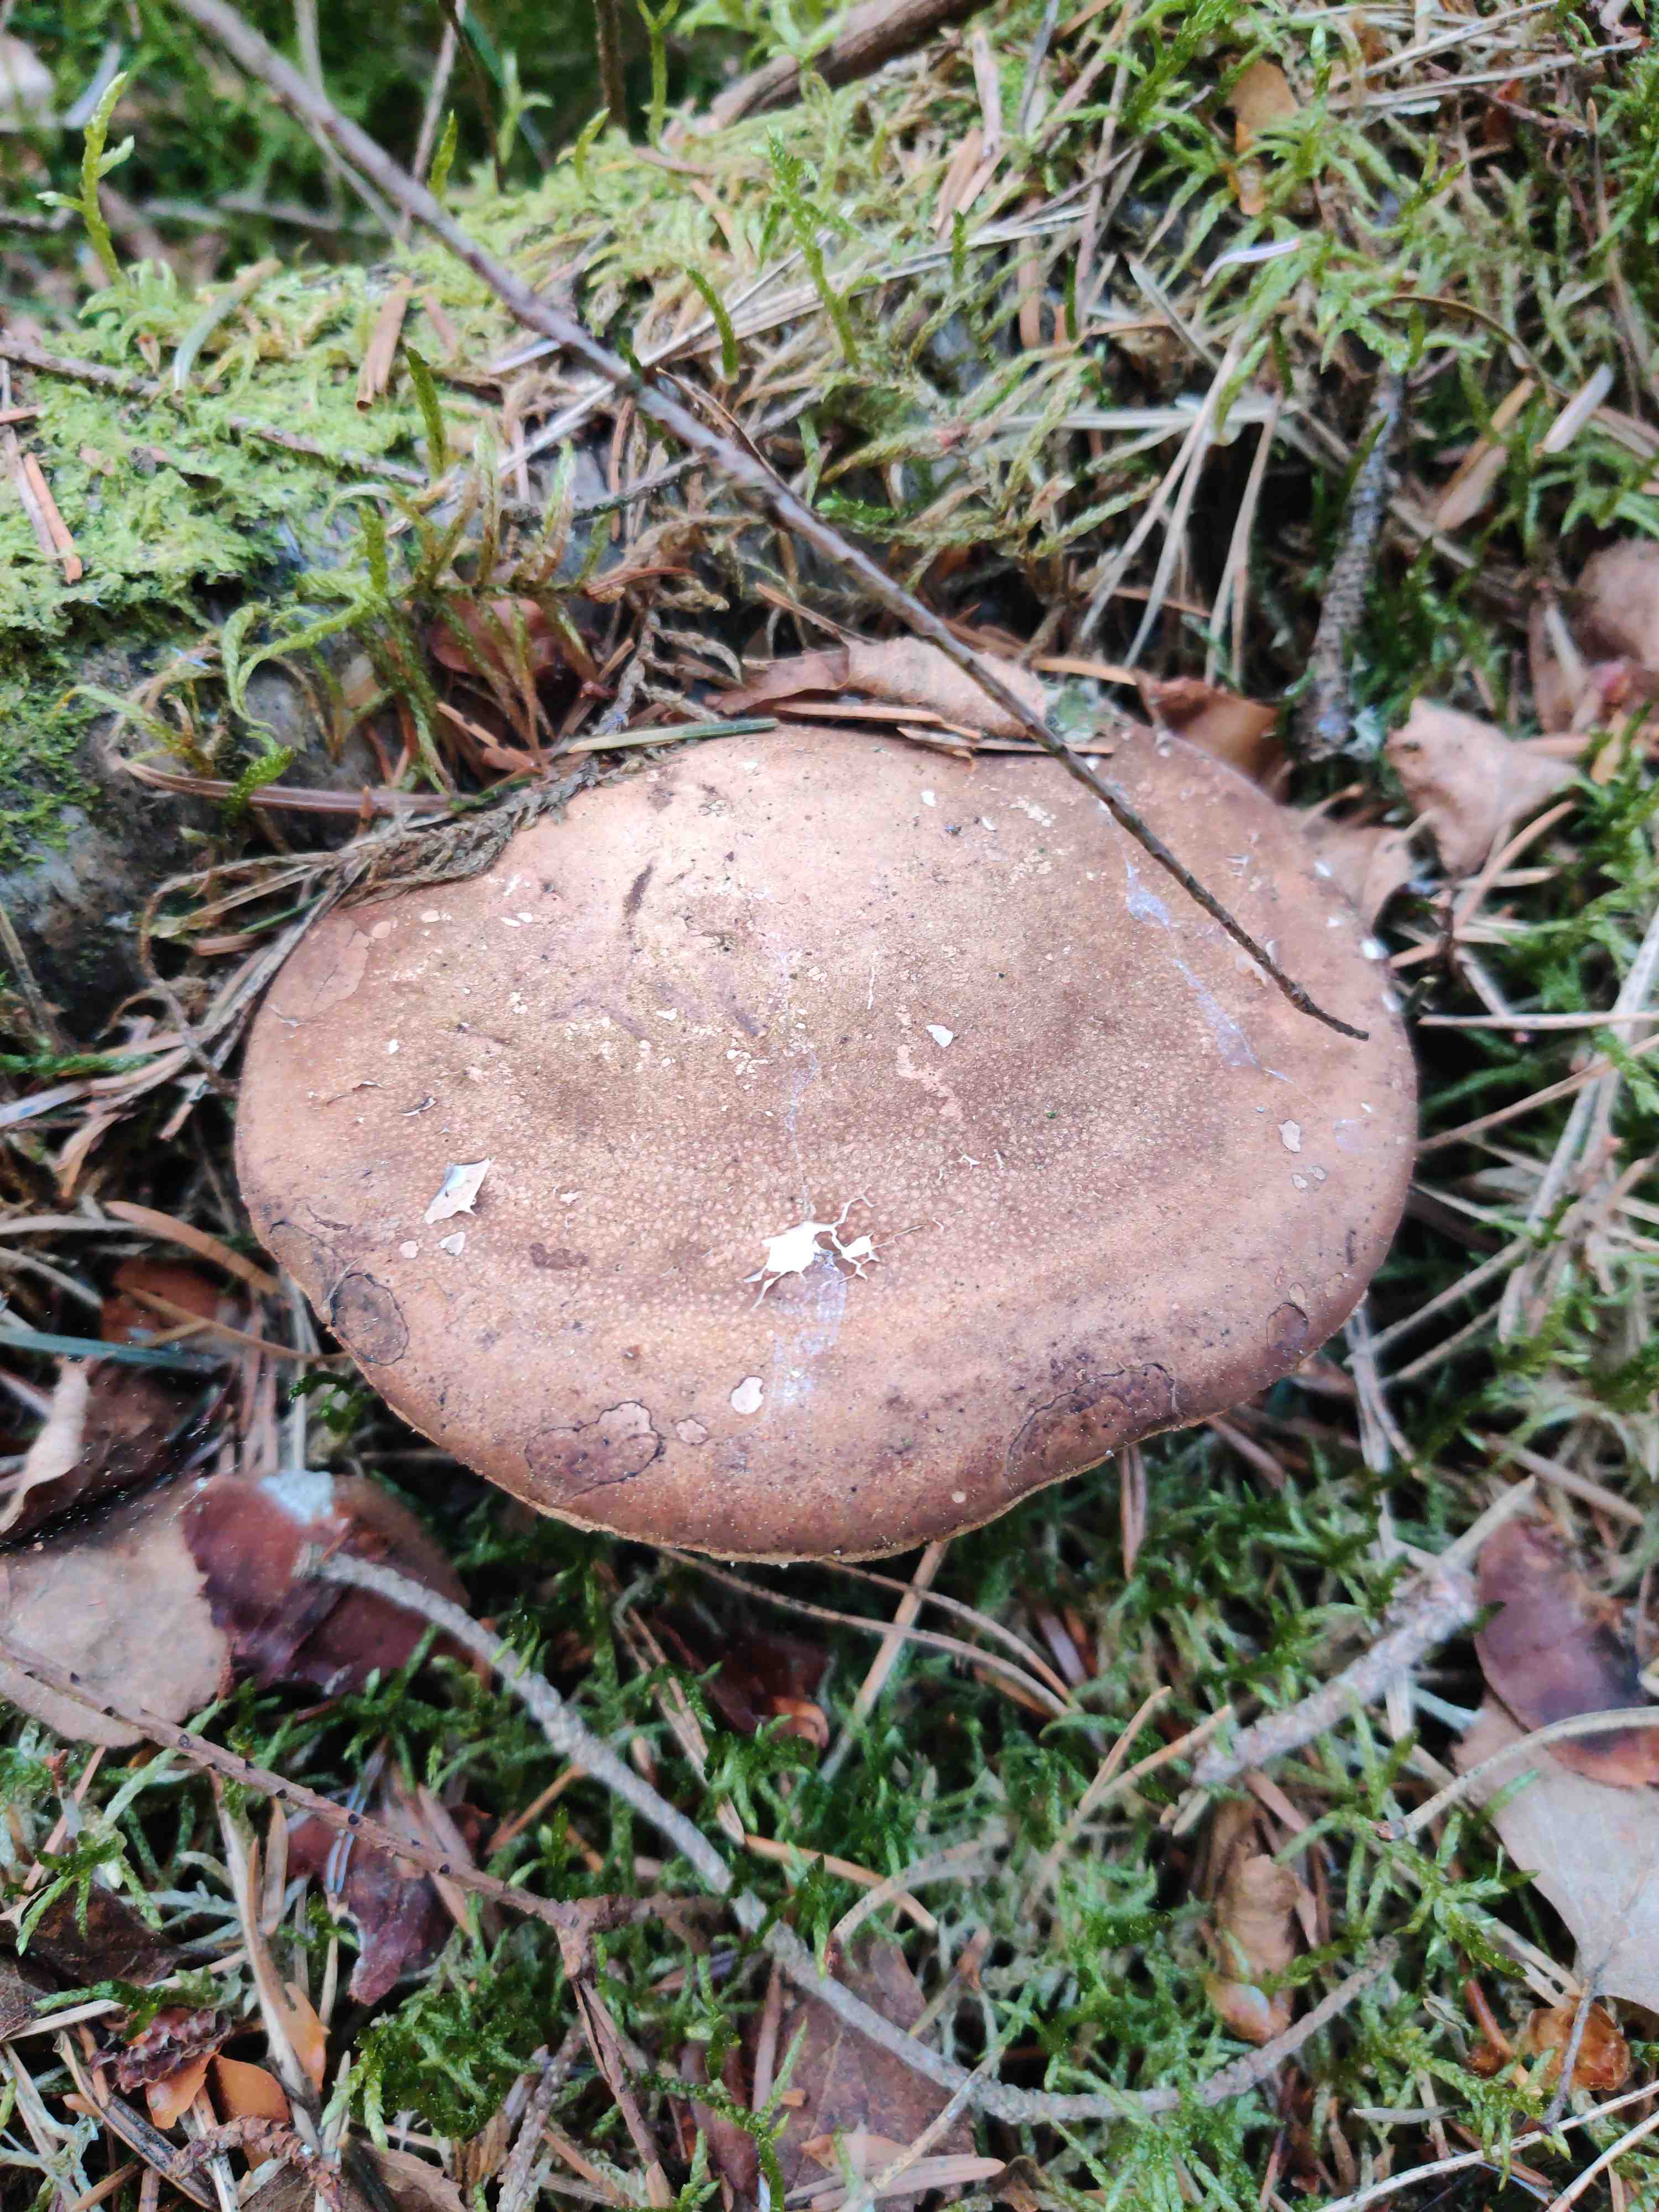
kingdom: Fungi
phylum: Basidiomycota
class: Agaricomycetes
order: Polyporales
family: Fomitopsidaceae
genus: Fomitopsis
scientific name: Fomitopsis betulina
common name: birkeporesvamp
